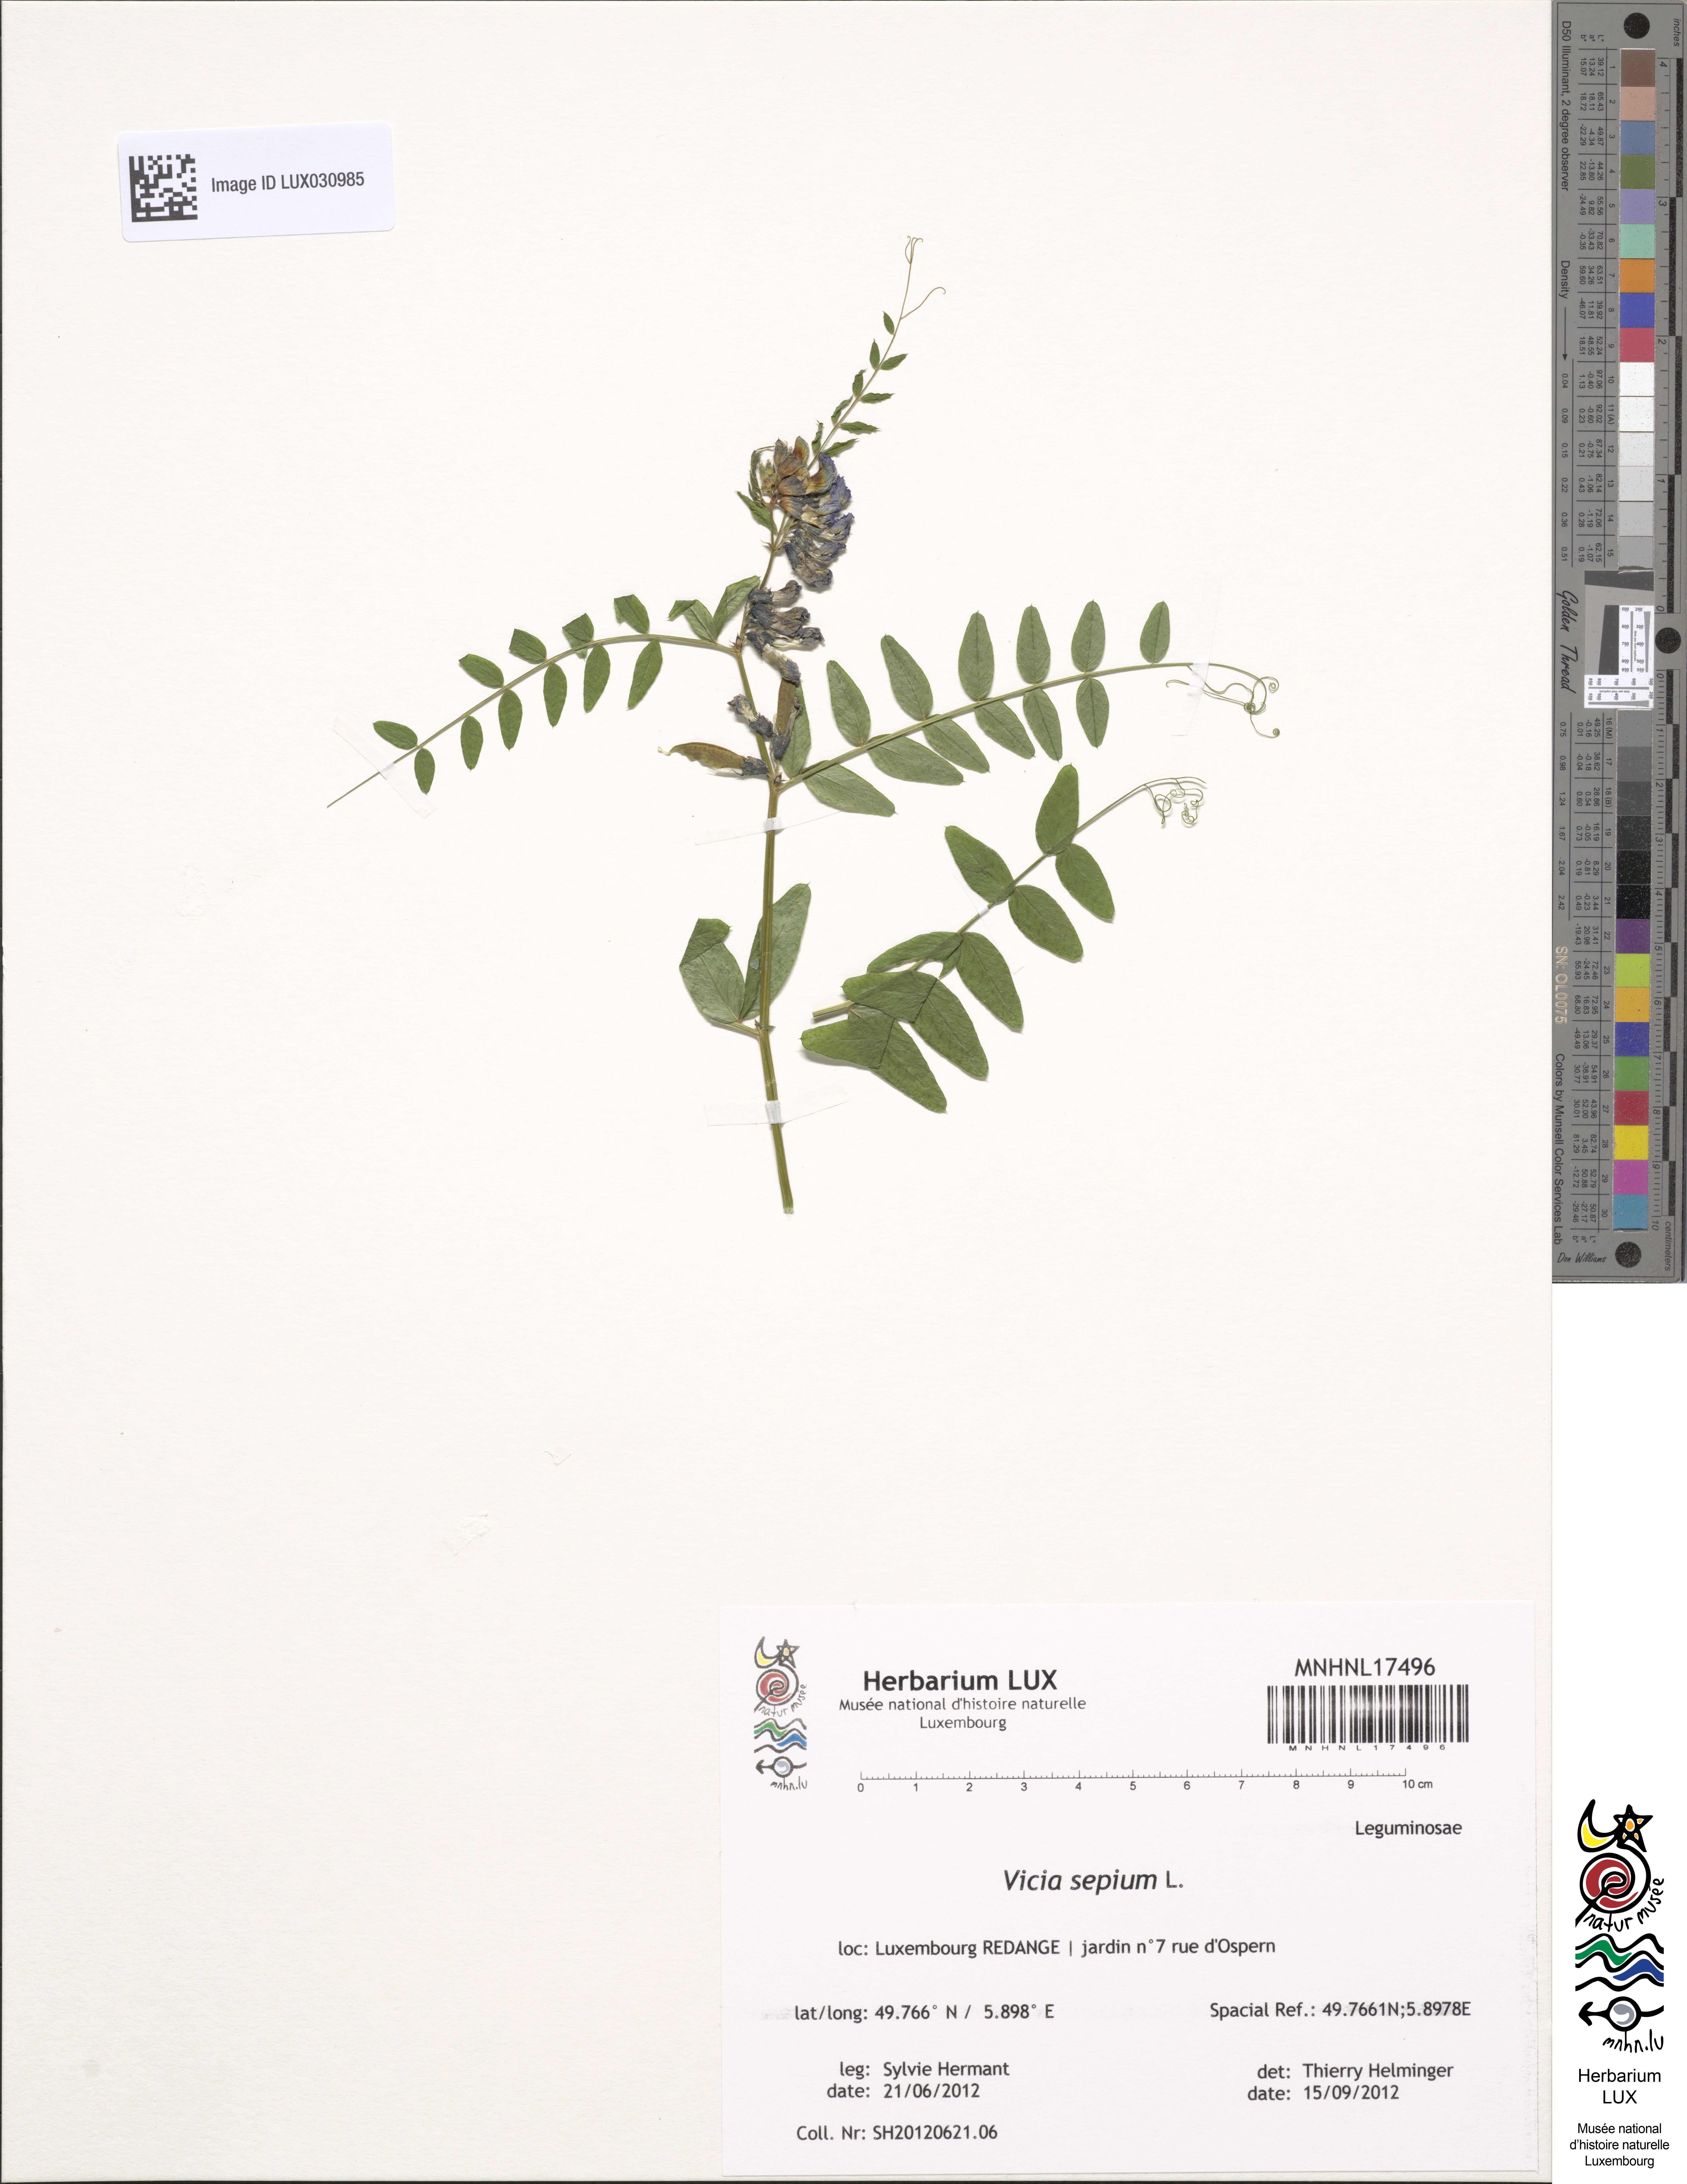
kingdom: Plantae
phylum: Tracheophyta
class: Magnoliopsida
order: Fabales
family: Fabaceae
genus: Vicia
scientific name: Vicia sepium
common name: Bush vetch
